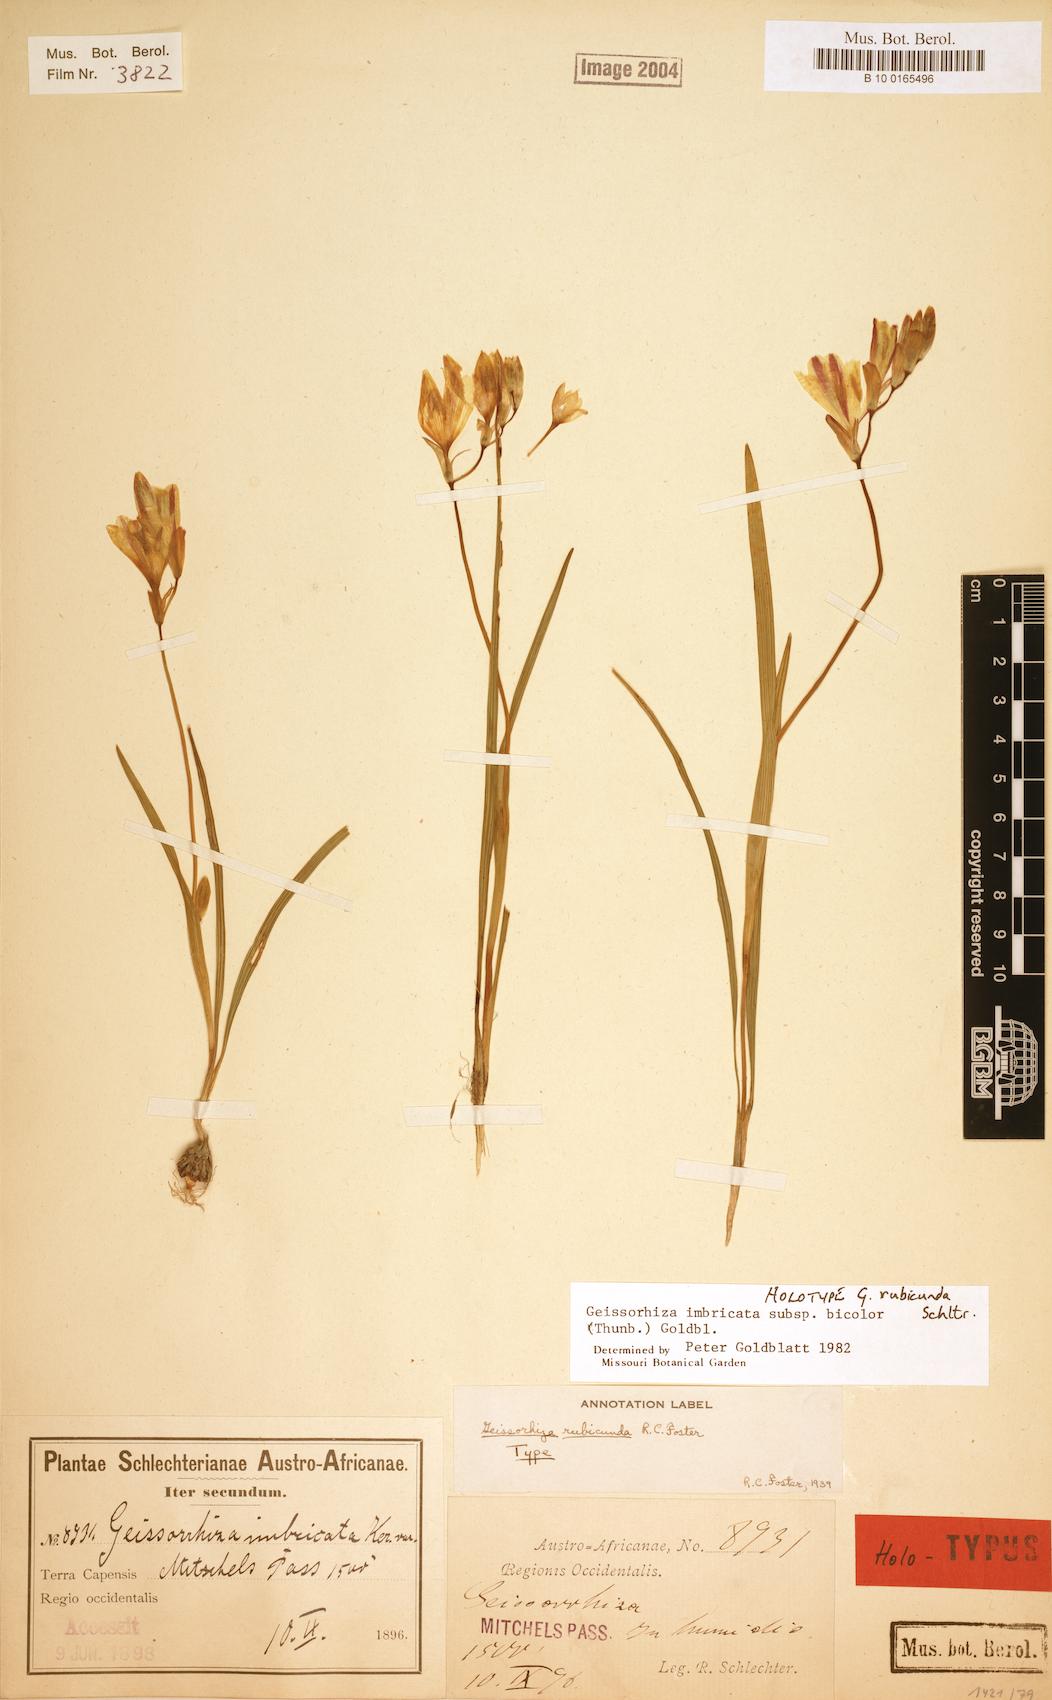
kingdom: Plantae
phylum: Tracheophyta
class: Liliopsida
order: Asparagales
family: Iridaceae
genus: Geissorhiza
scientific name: Geissorhiza imbricata
